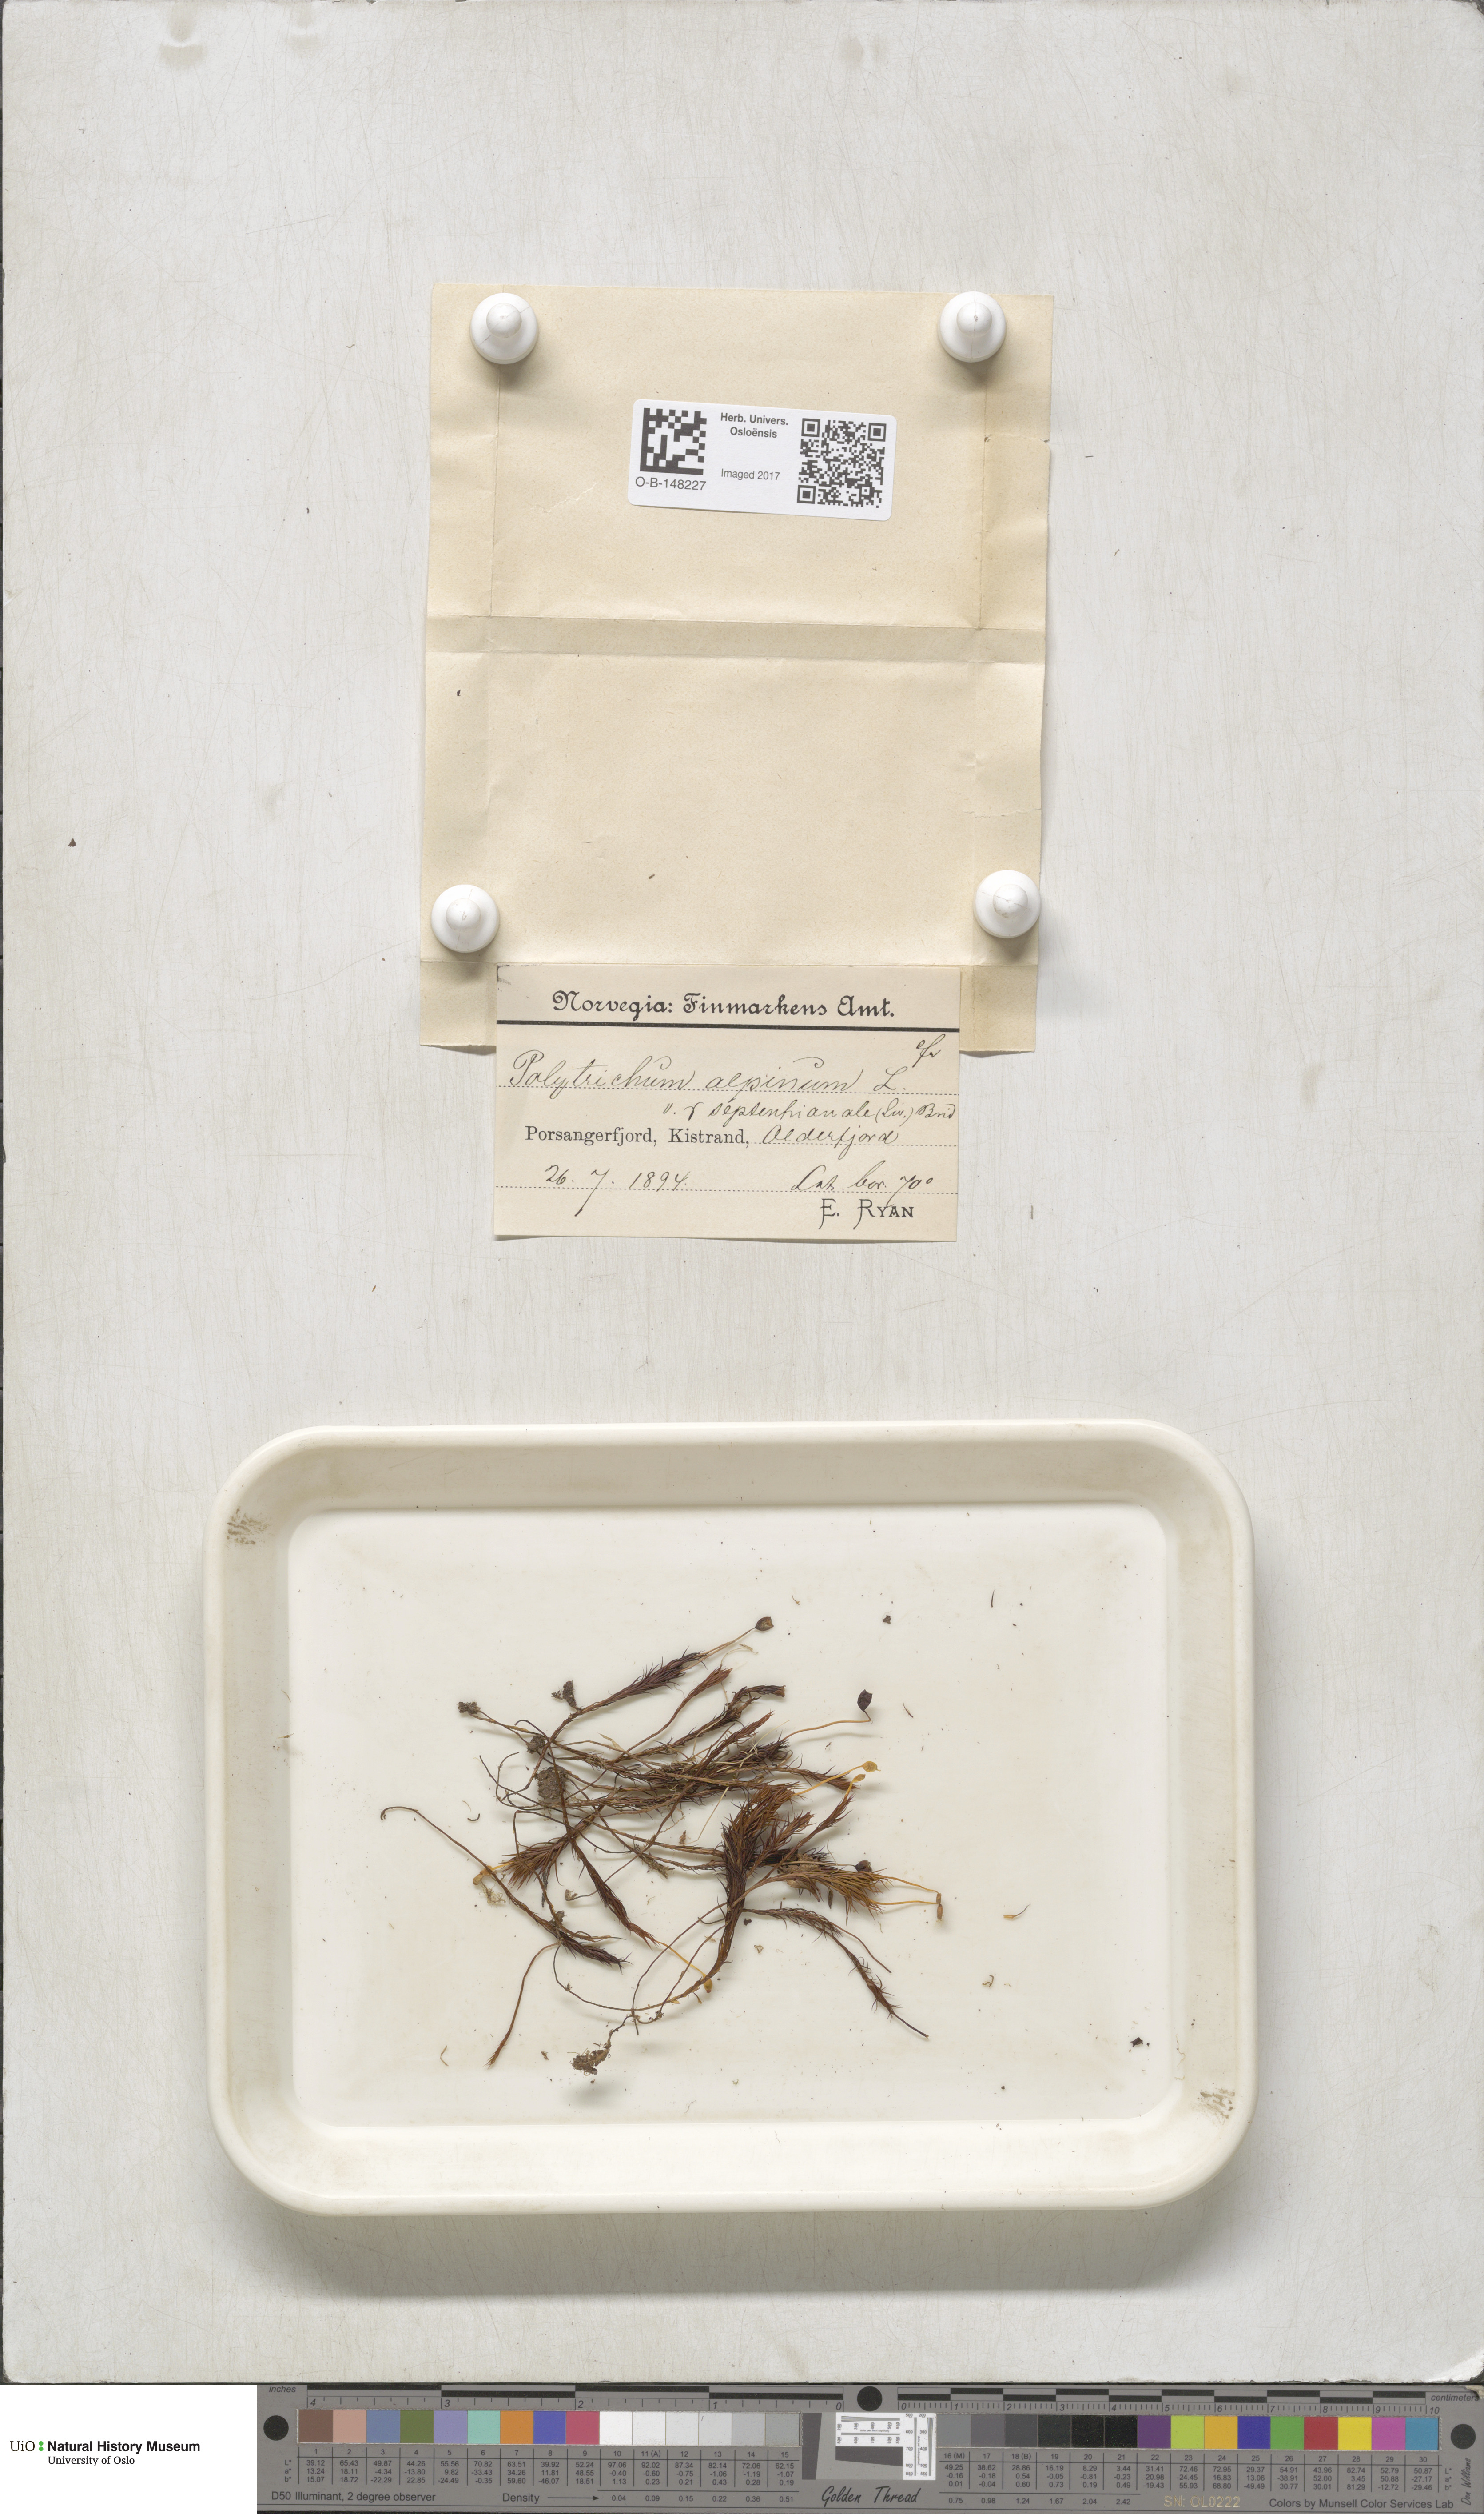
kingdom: Plantae
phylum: Bryophyta
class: Polytrichopsida
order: Polytrichales
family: Polytrichaceae
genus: Polytrichastrum
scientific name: Polytrichastrum alpinum
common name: Alpine haircap
